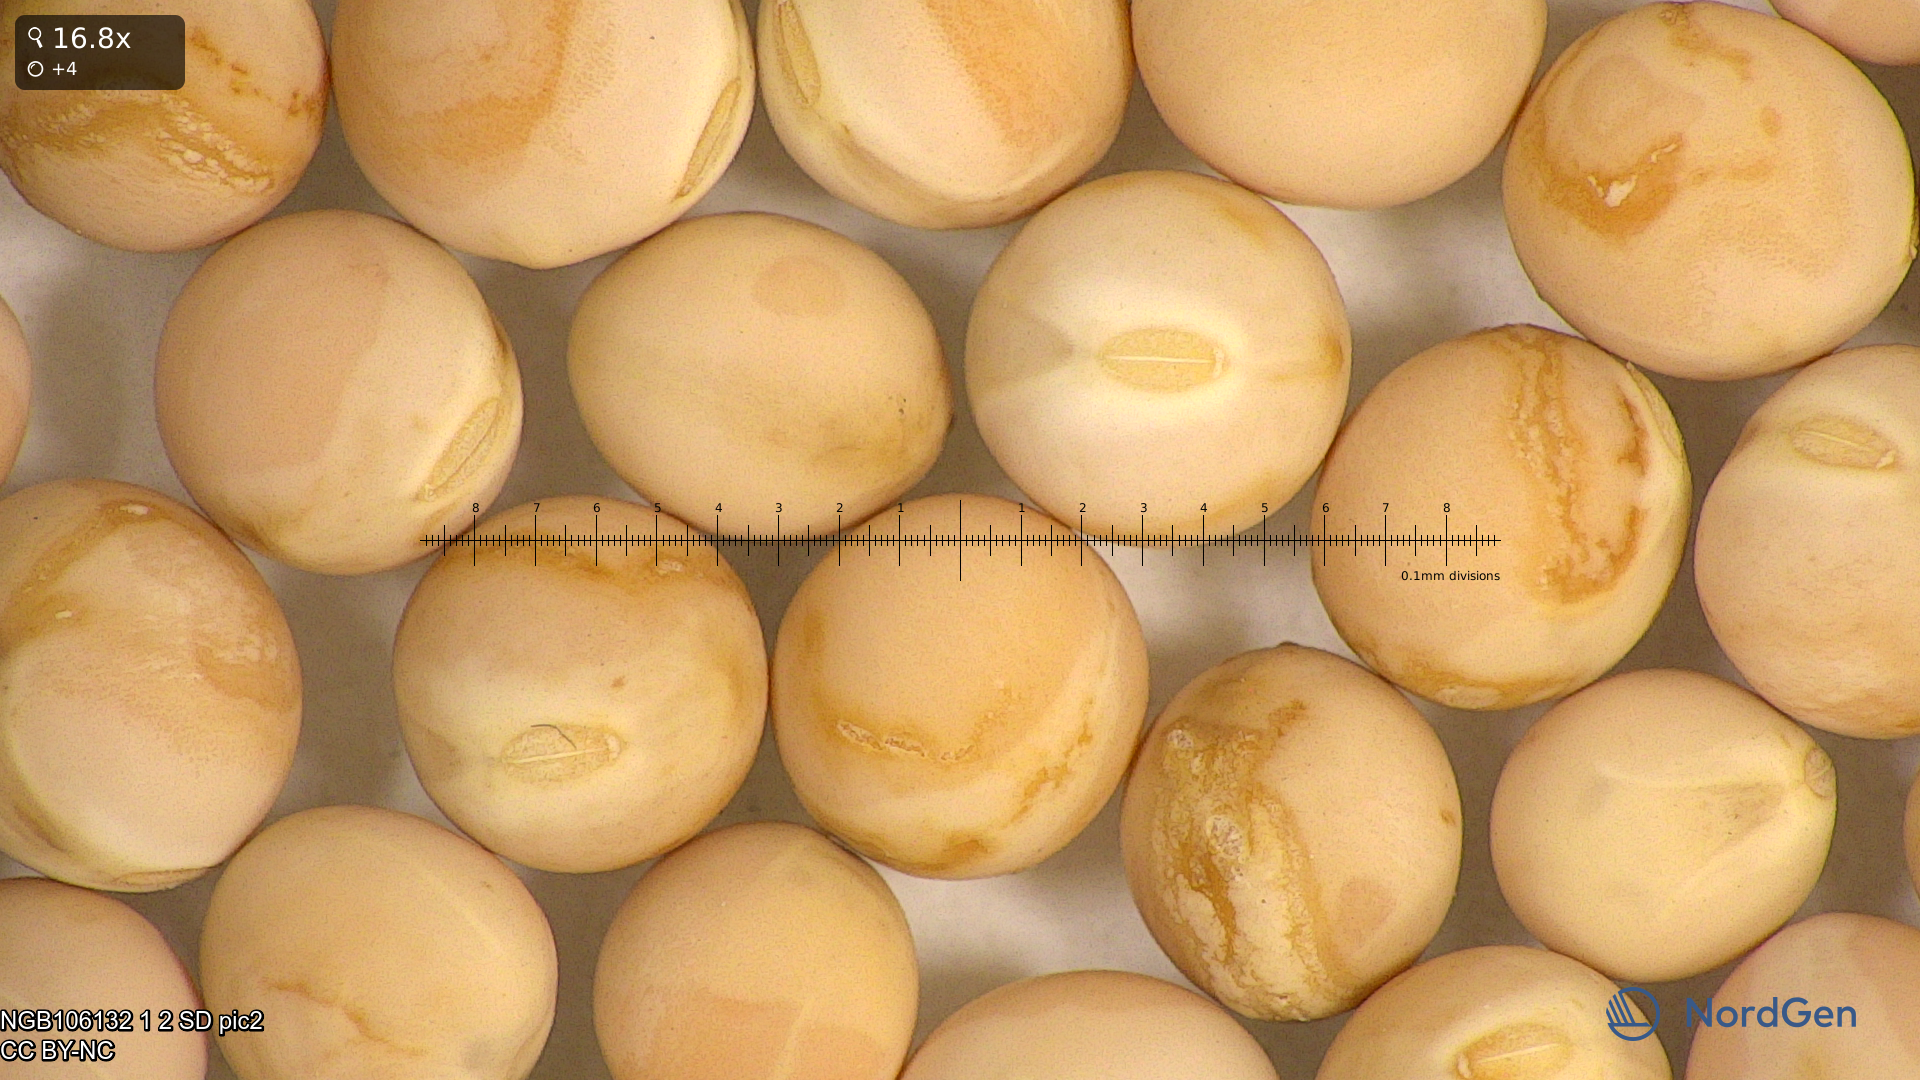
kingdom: Plantae
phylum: Tracheophyta
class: Magnoliopsida
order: Fabales
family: Fabaceae
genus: Lathyrus
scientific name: Lathyrus oleraceus
